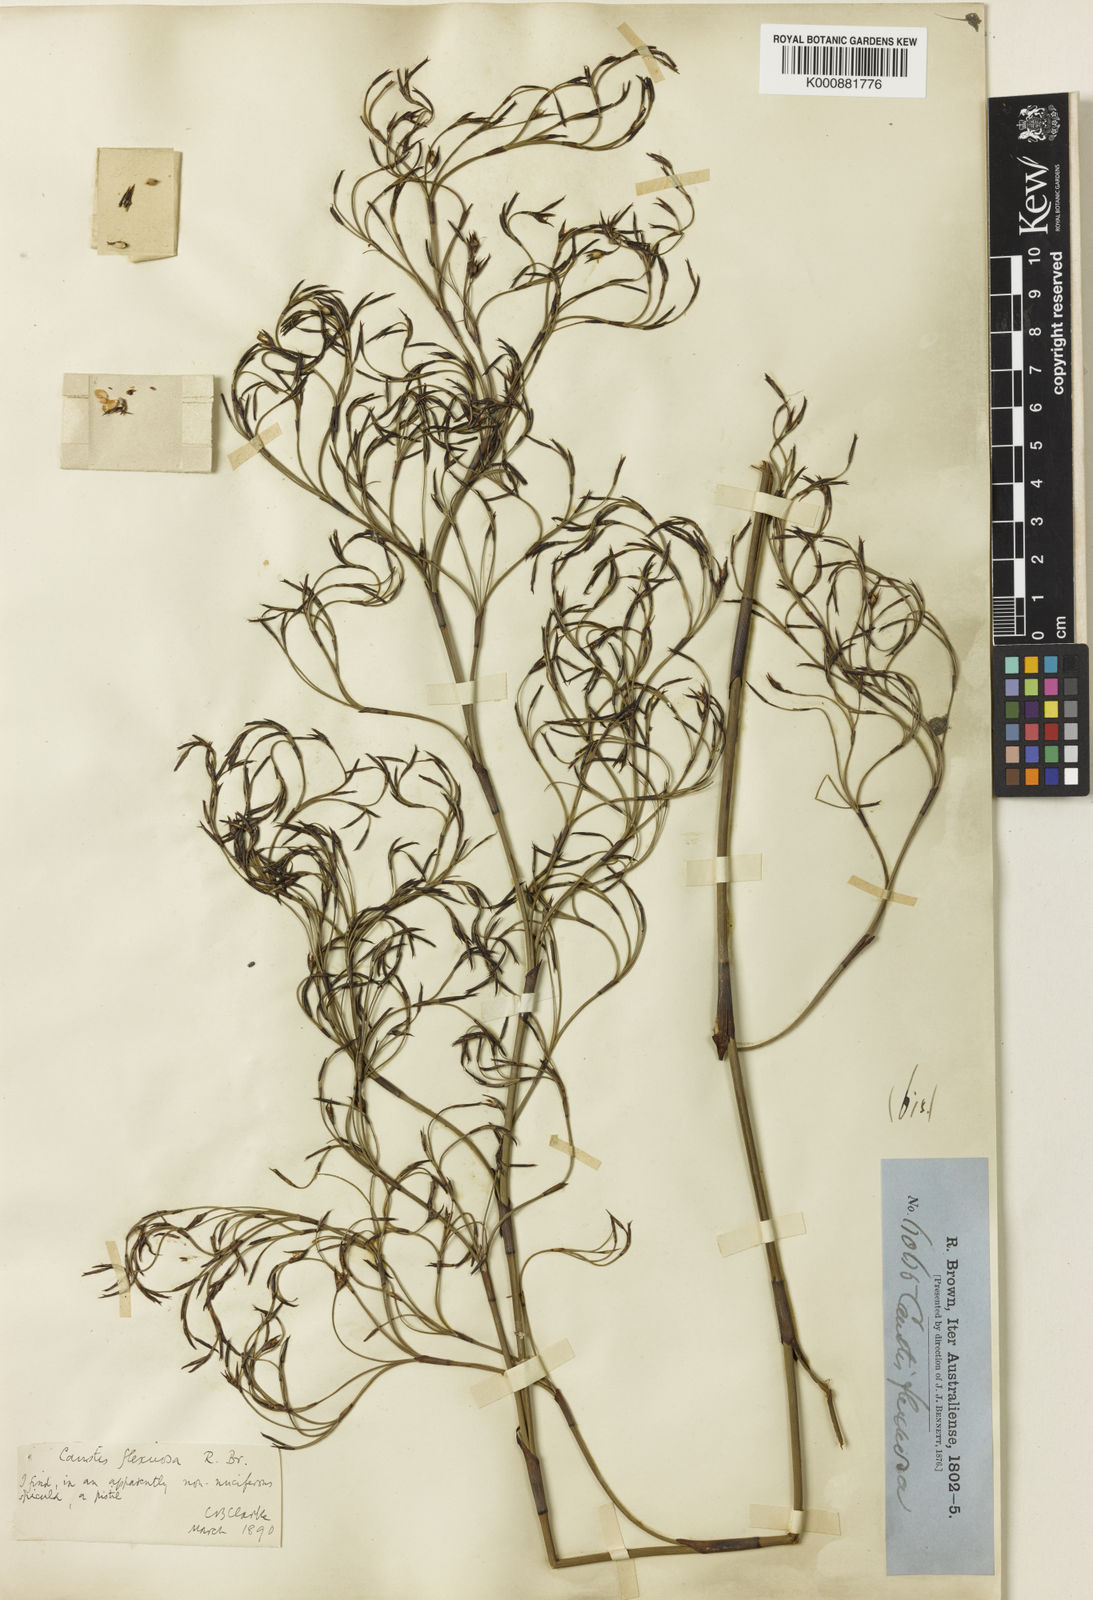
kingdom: Plantae
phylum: Tracheophyta
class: Liliopsida
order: Poales
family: Cyperaceae
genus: Caustis
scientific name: Caustis flexuosa
